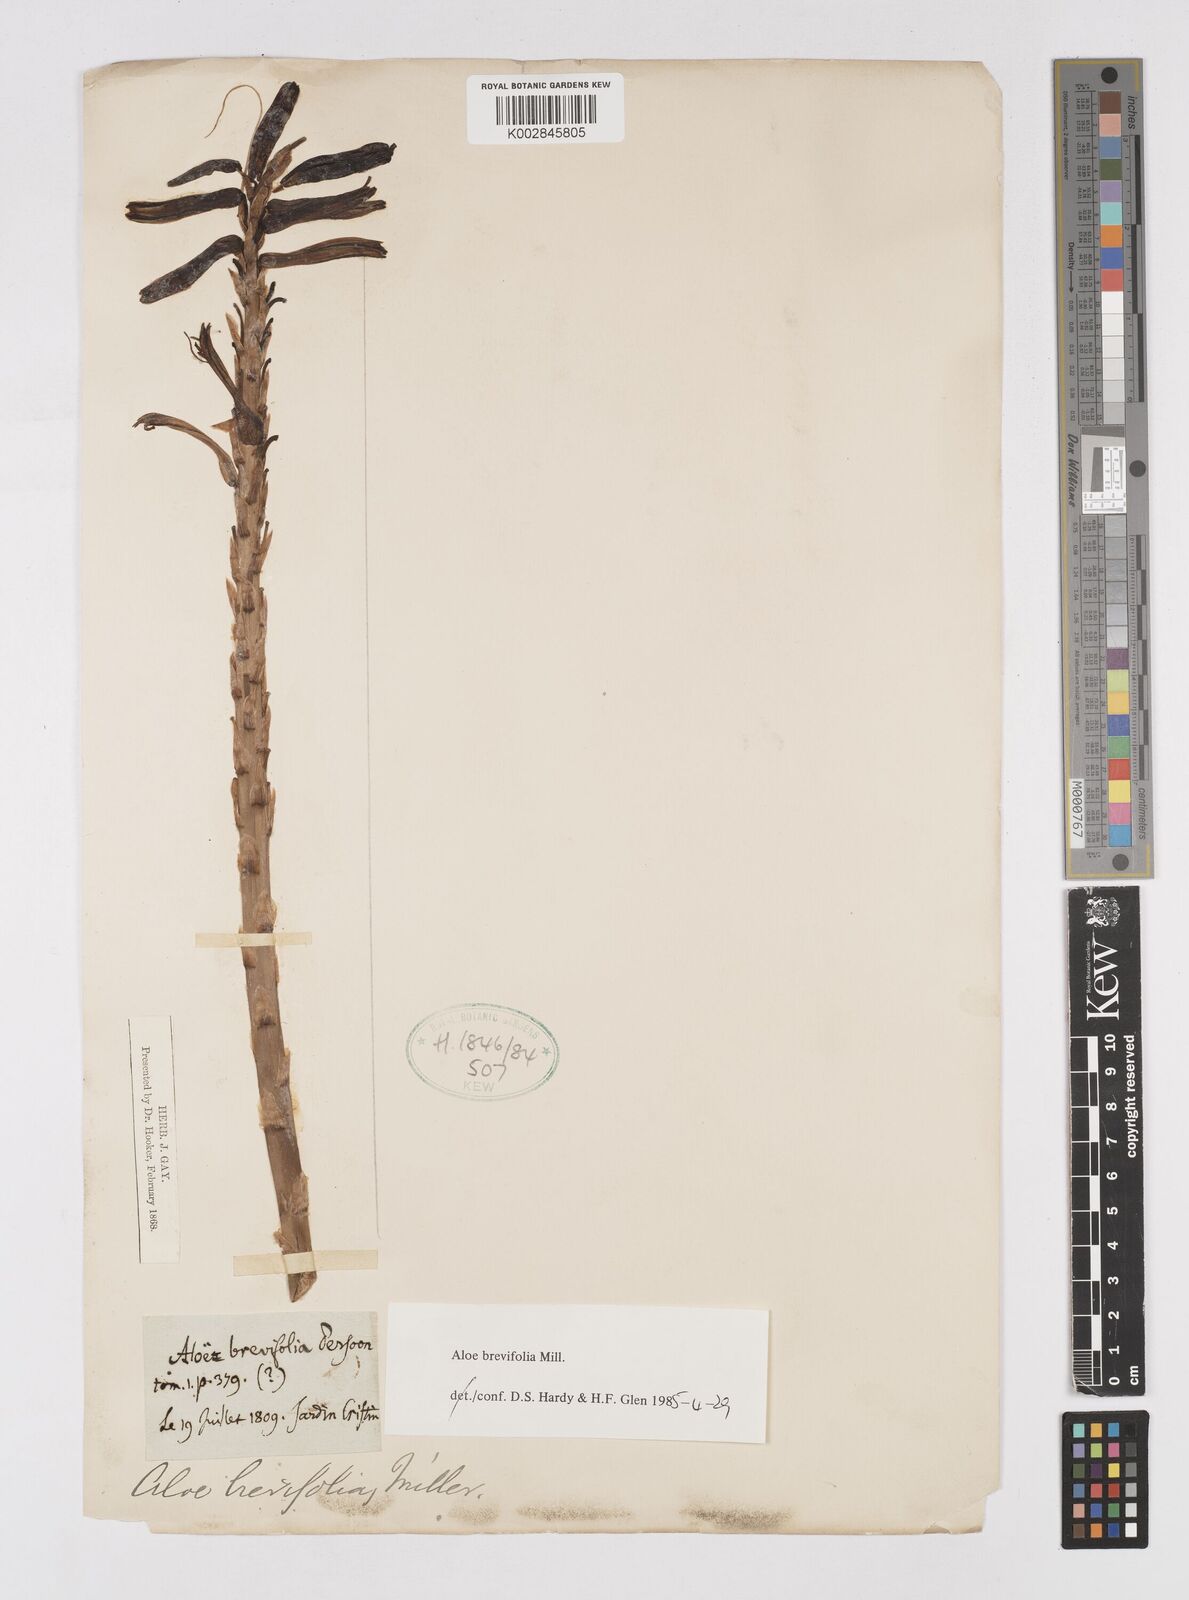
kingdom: Plantae
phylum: Tracheophyta
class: Liliopsida
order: Asparagales
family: Asphodelaceae
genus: Aloe
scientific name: Aloe brevifolia
